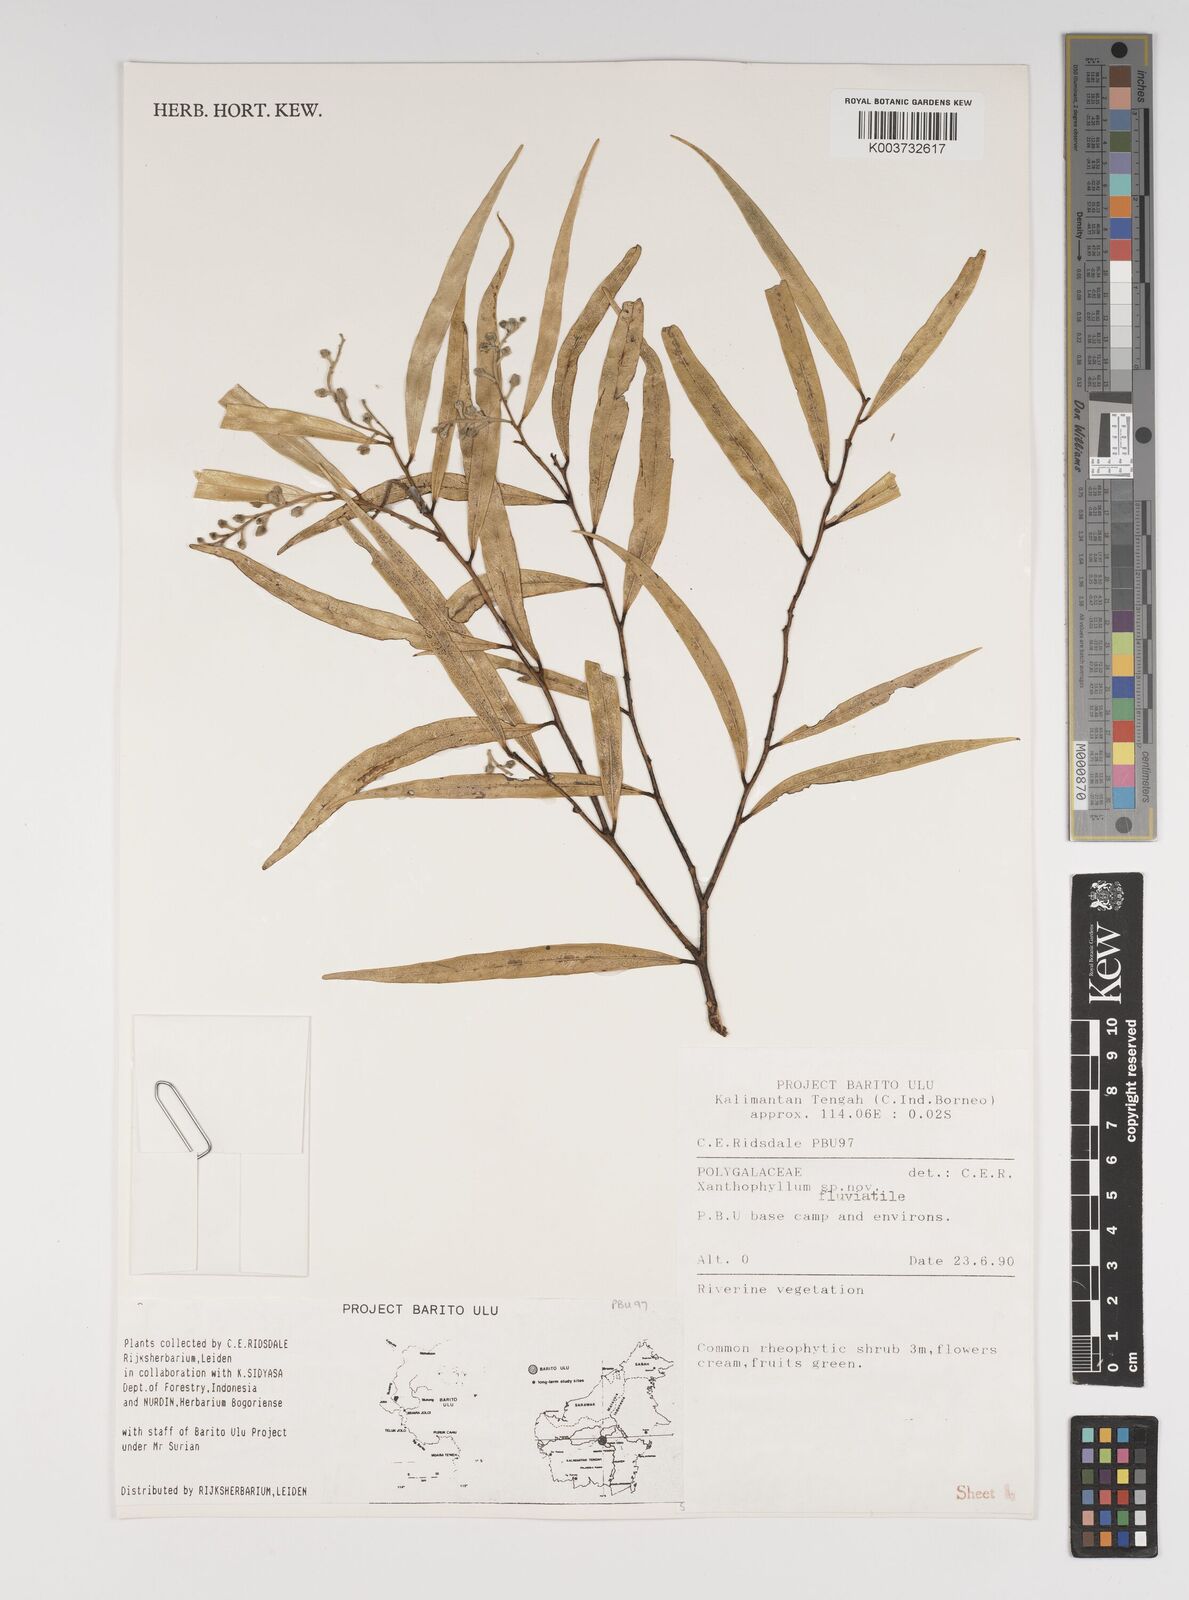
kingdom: Plantae
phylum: Tracheophyta
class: Magnoliopsida
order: Fabales
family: Polygalaceae
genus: Xanthophyllum
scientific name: Xanthophyllum
